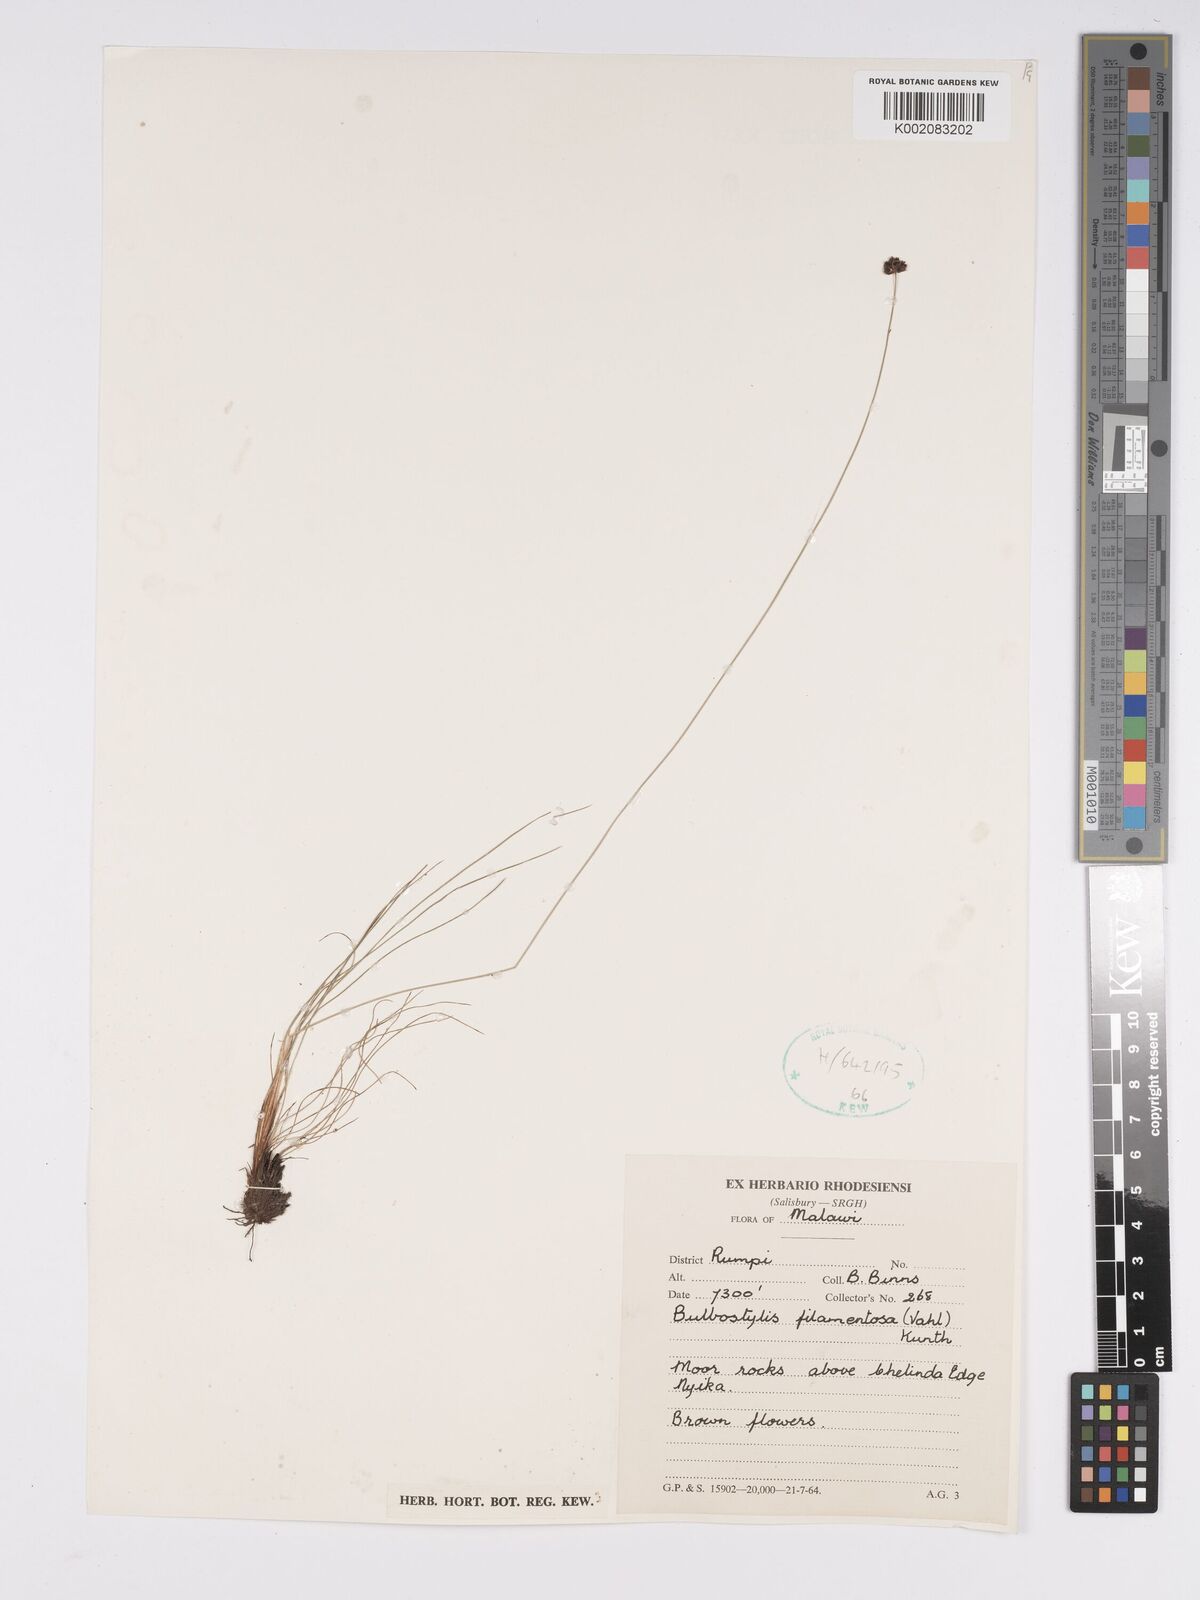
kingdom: Plantae
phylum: Tracheophyta
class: Liliopsida
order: Poales
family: Cyperaceae
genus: Bulbostylis
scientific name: Bulbostylis filamentosa
